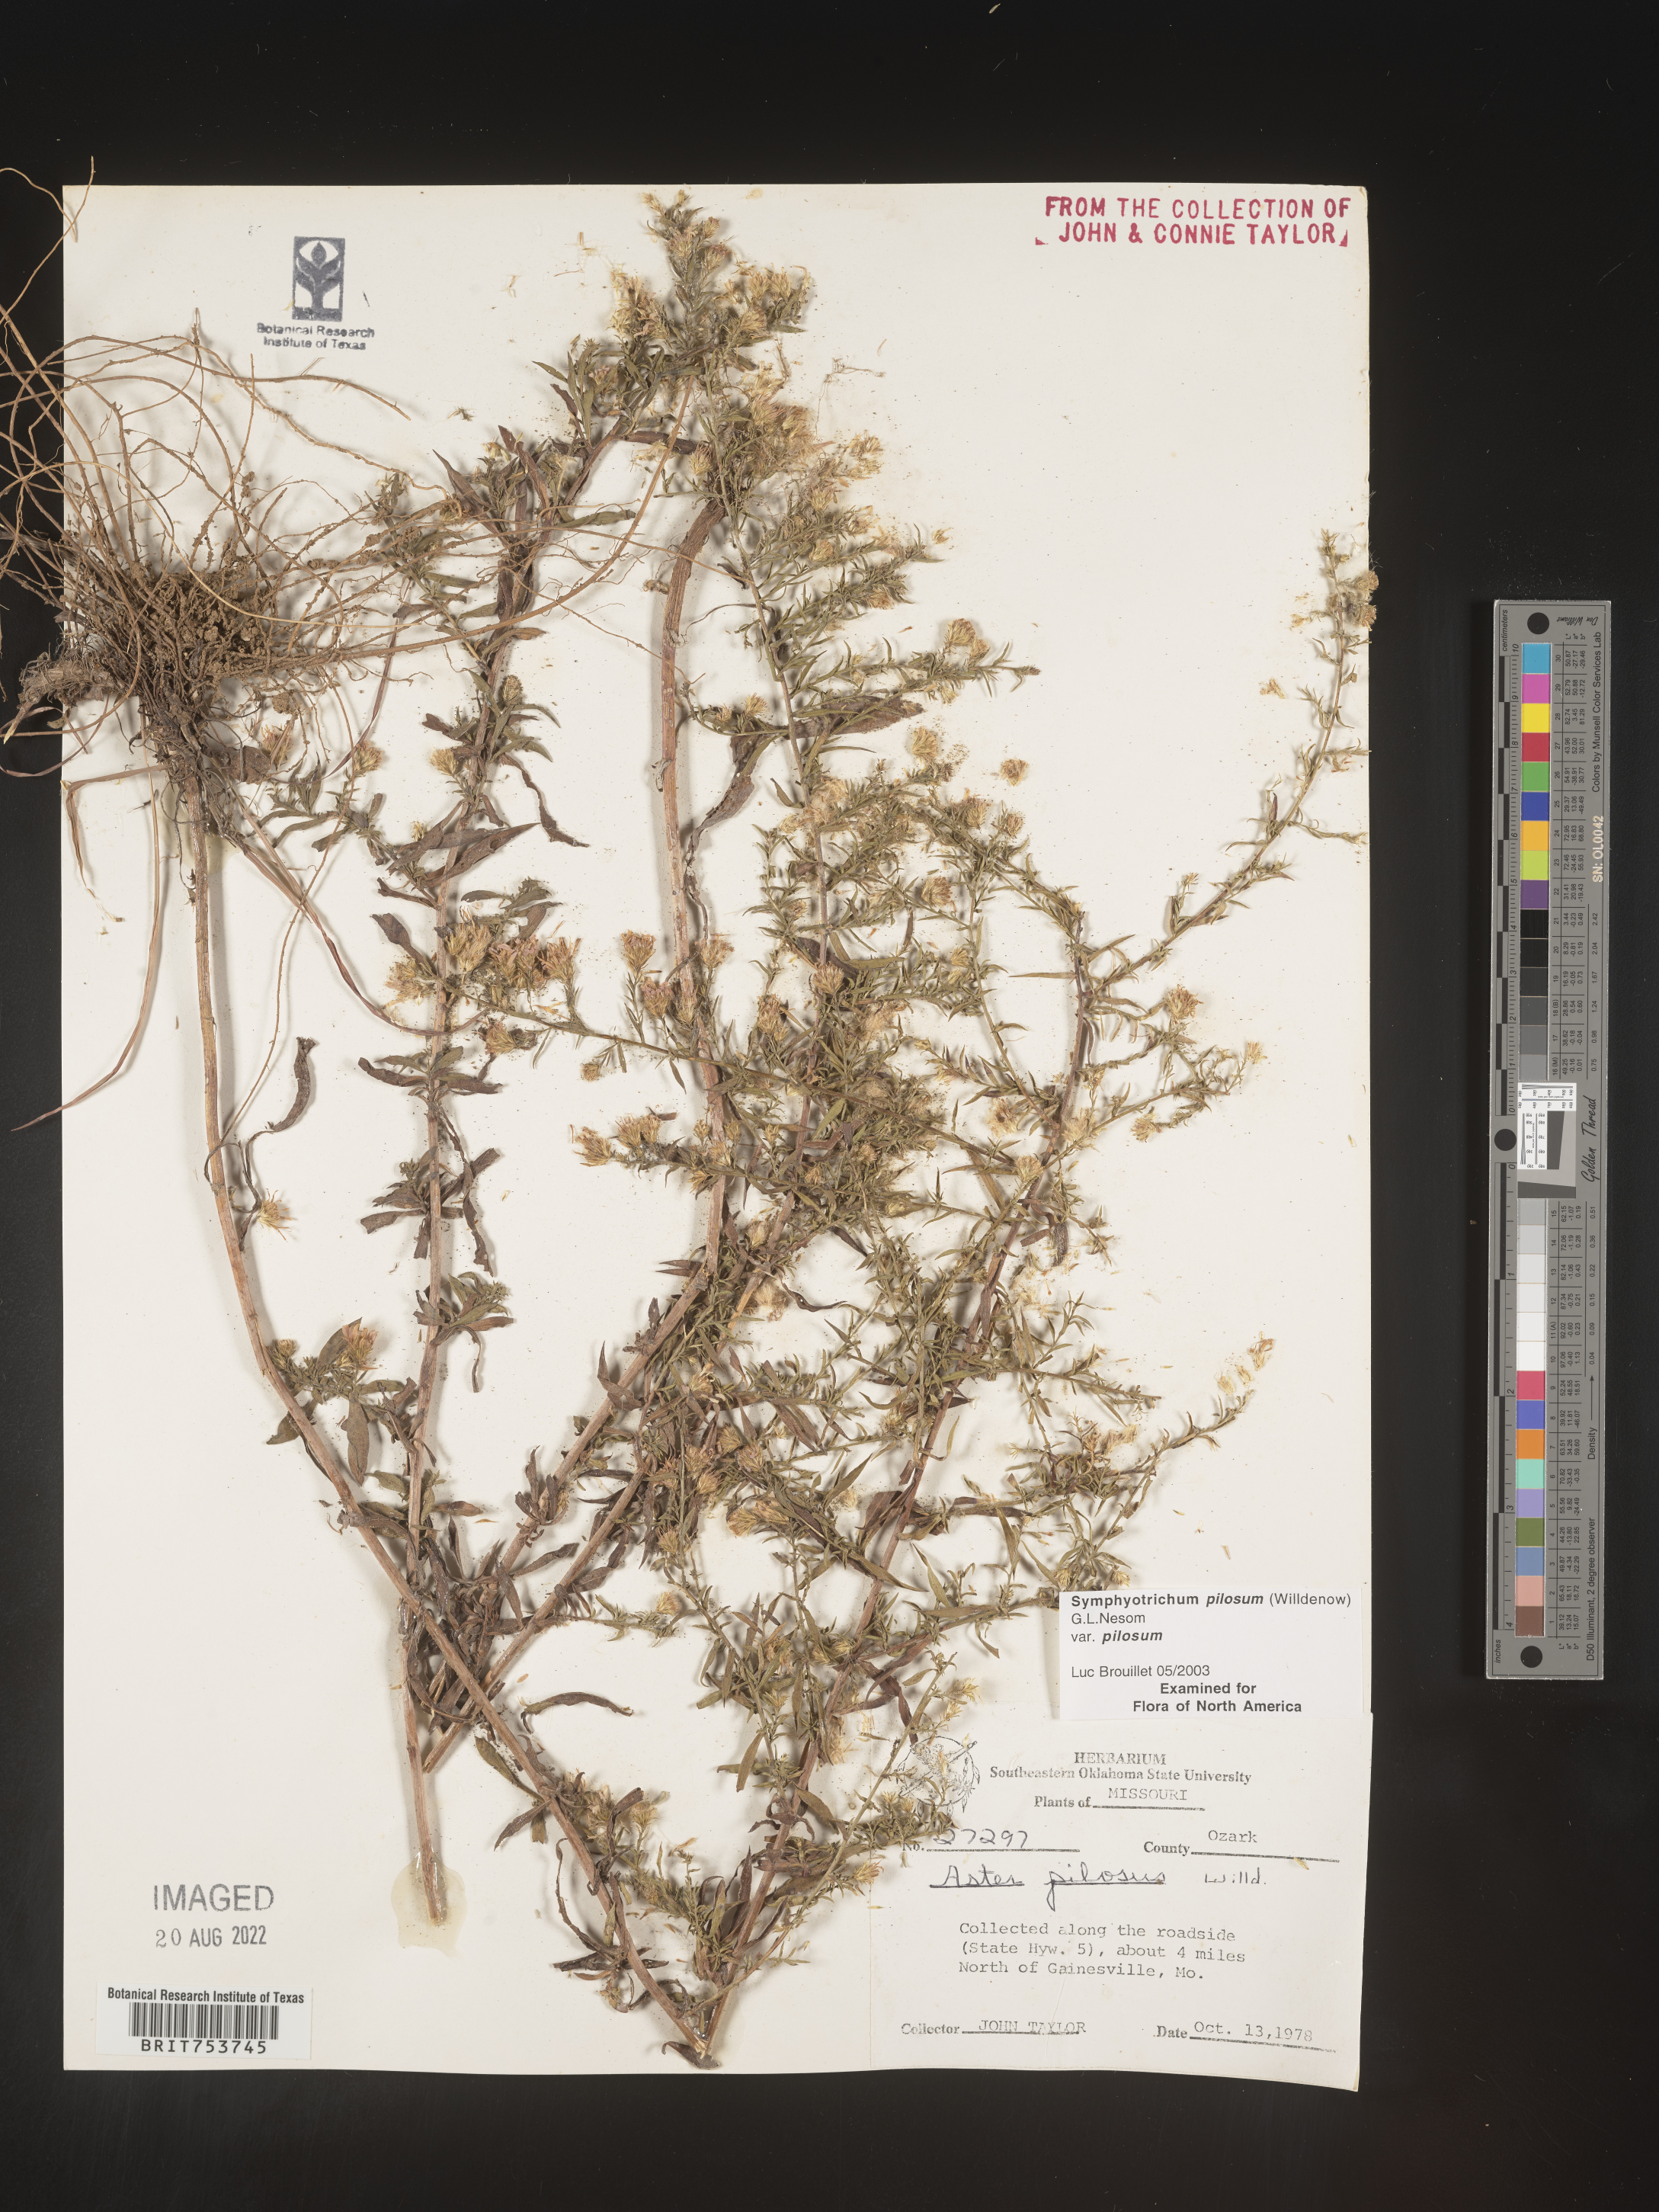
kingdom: Plantae
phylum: Tracheophyta
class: Magnoliopsida
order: Asterales
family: Asteraceae
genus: Symphyotrichum
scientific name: Symphyotrichum pilosum
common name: Awl aster
